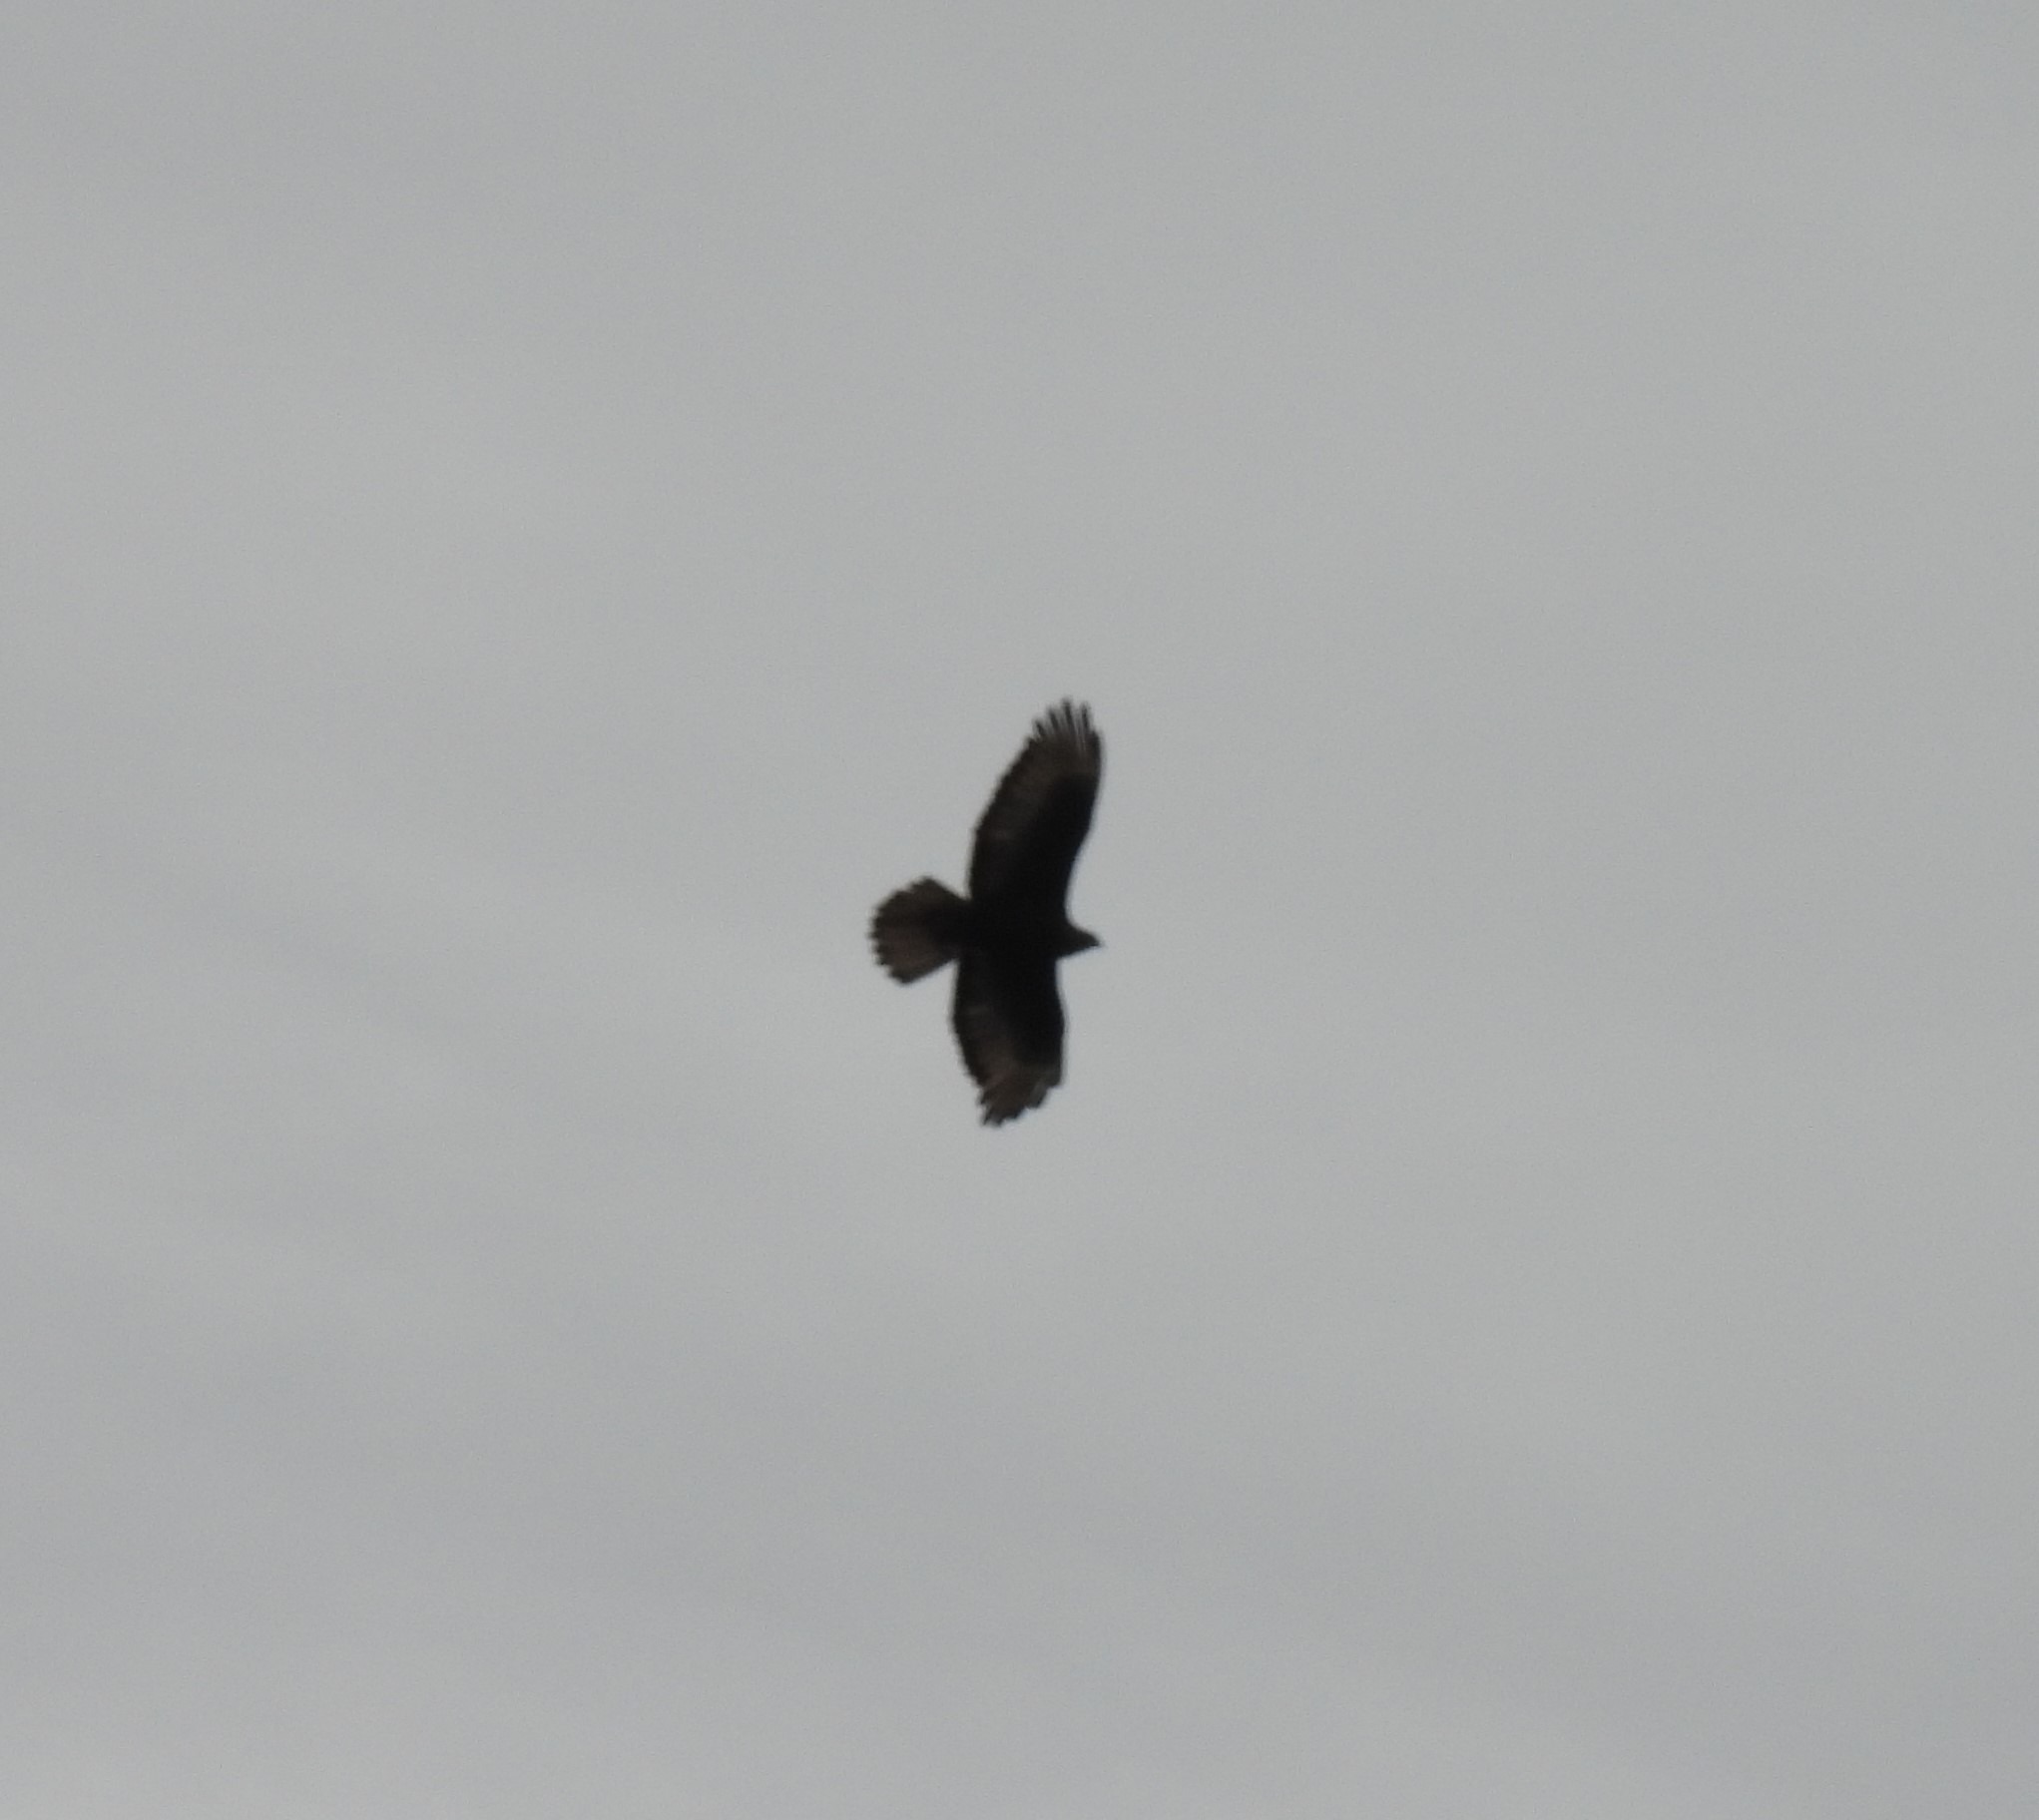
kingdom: Animalia
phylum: Chordata
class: Aves
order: Accipitriformes
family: Accipitridae
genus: Buteo
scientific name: Buteo buteo
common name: Musvåge
